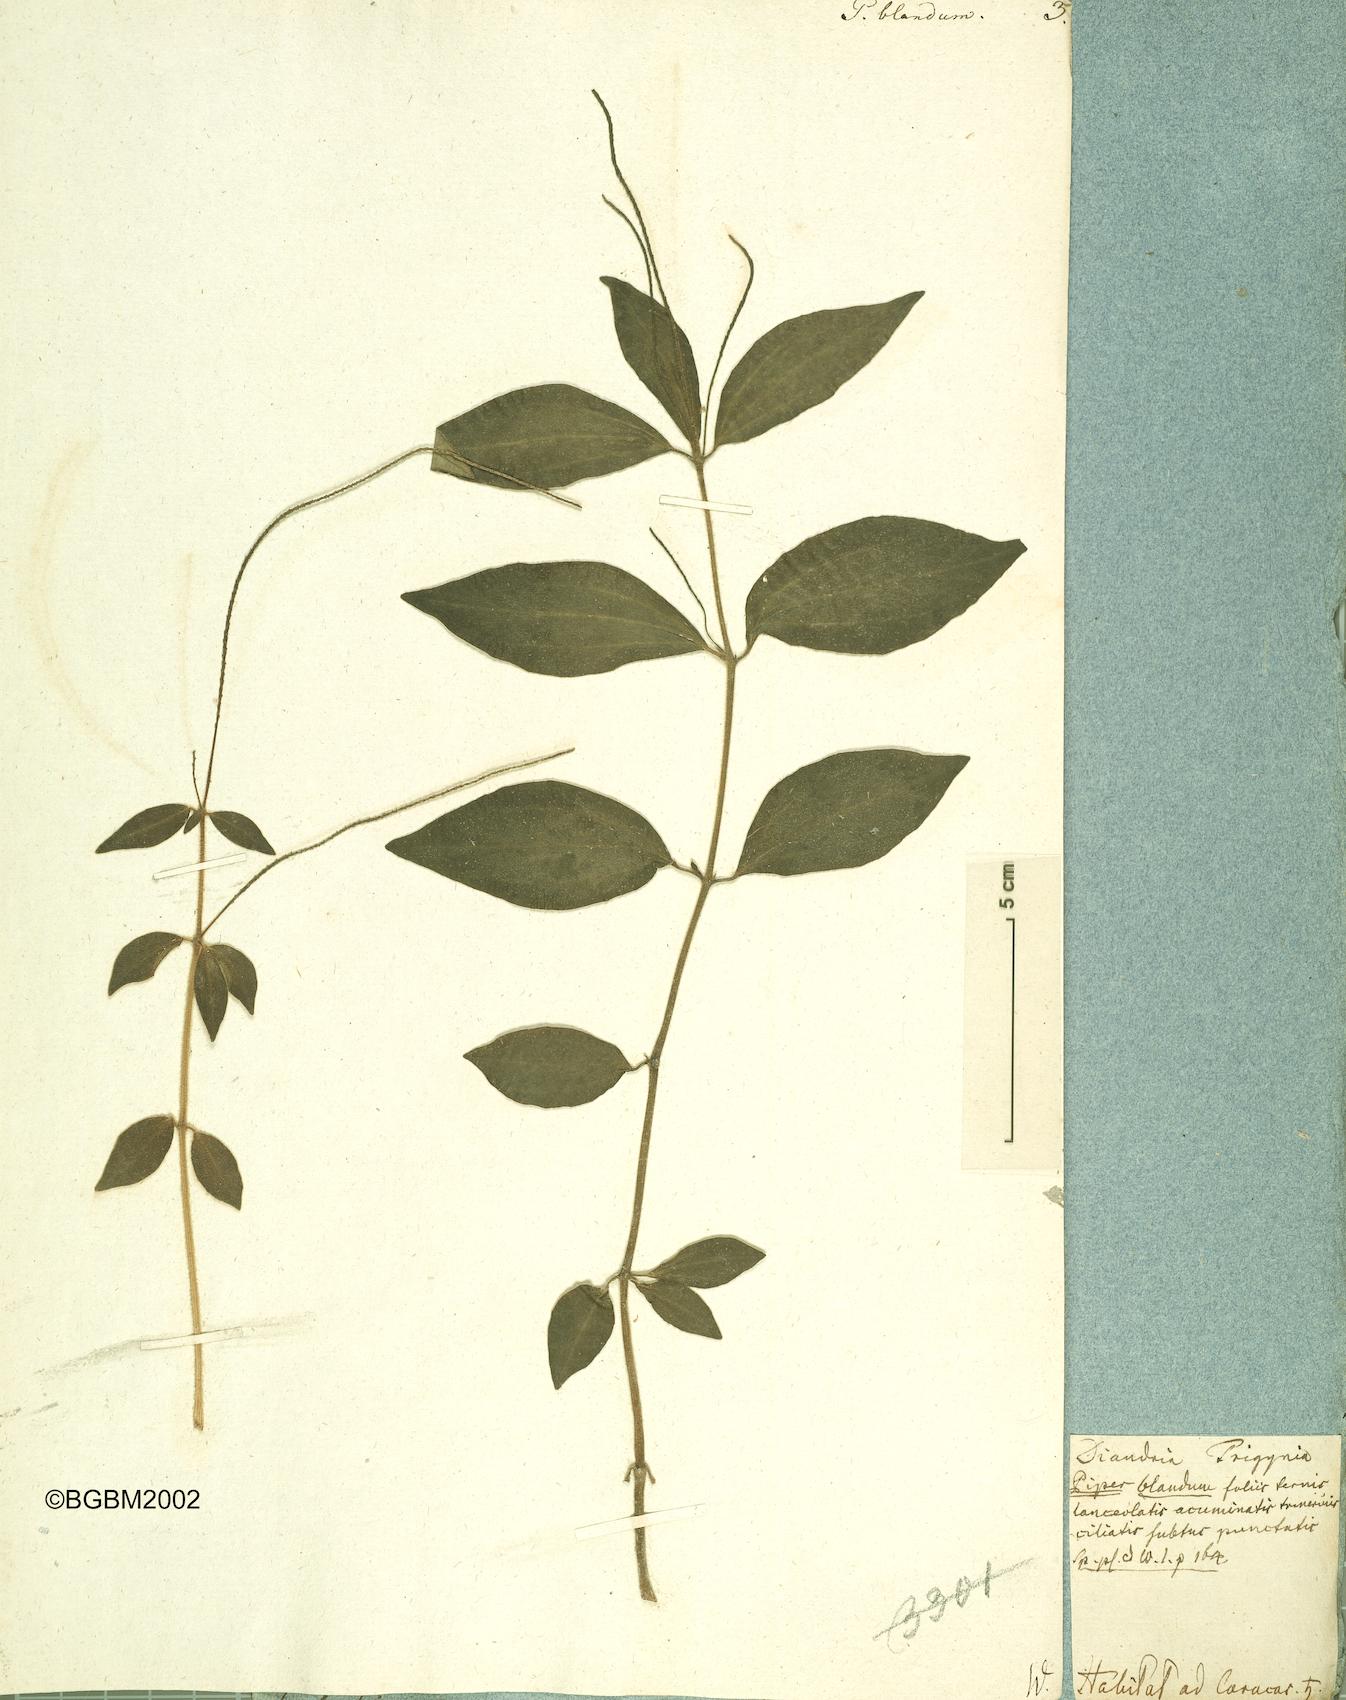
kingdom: Plantae
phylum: Tracheophyta
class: Magnoliopsida
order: Piperales
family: Piperaceae
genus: Peperomia
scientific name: Peperomia blanda
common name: Arid-land peperomia
